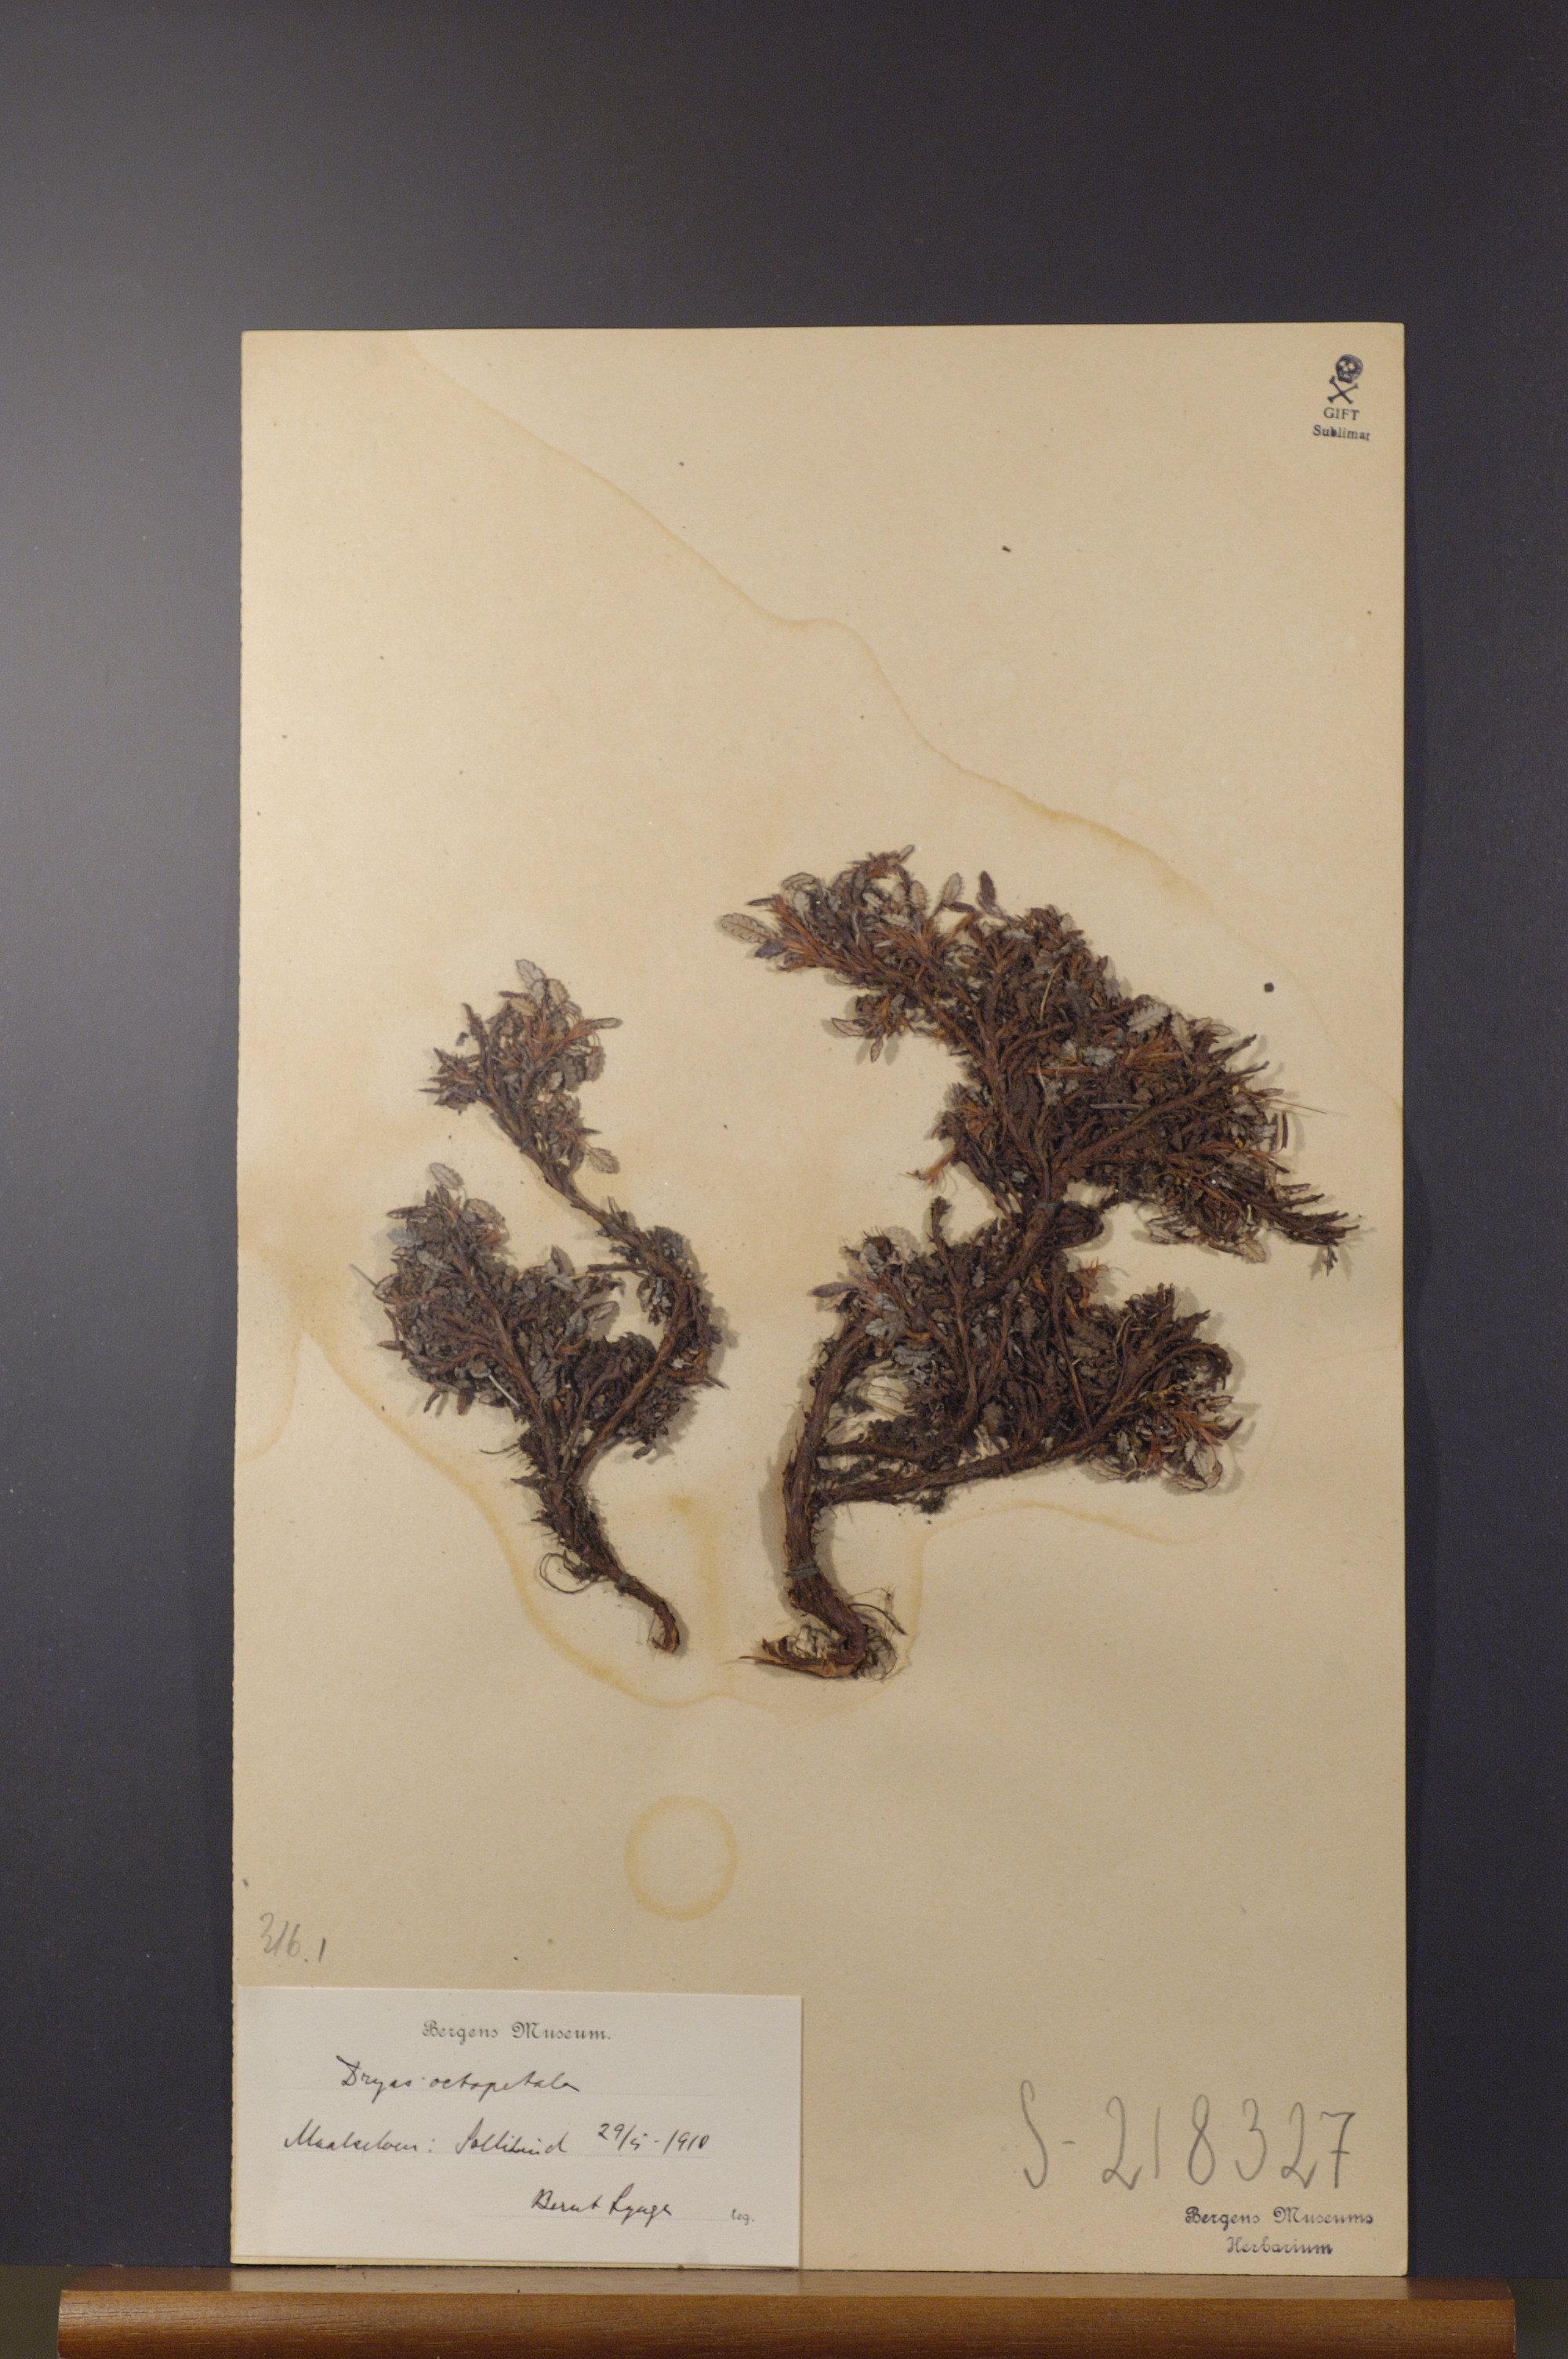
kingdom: Plantae
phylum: Tracheophyta
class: Magnoliopsida
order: Rosales
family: Rosaceae
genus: Dryas
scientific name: Dryas octopetala
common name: Eight-petal mountain-avens
